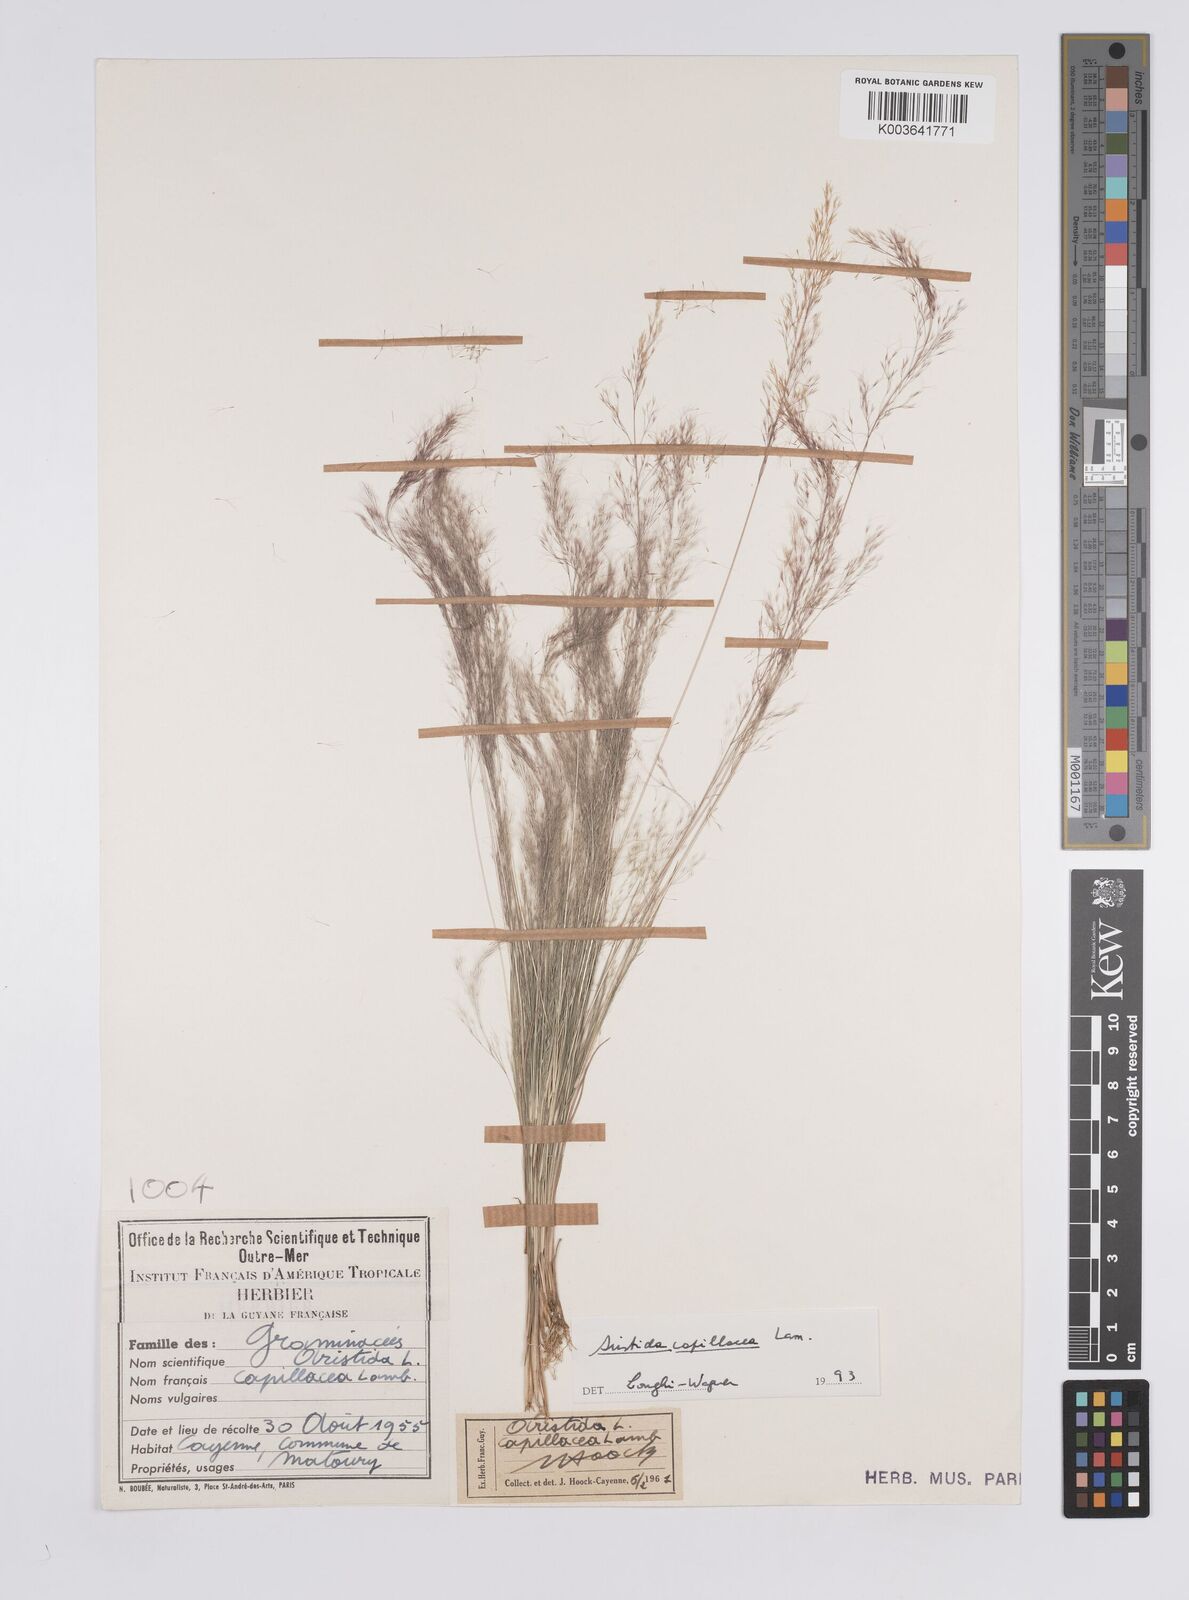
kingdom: Plantae
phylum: Tracheophyta
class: Liliopsida
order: Poales
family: Poaceae
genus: Aristida
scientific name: Aristida capillacea
